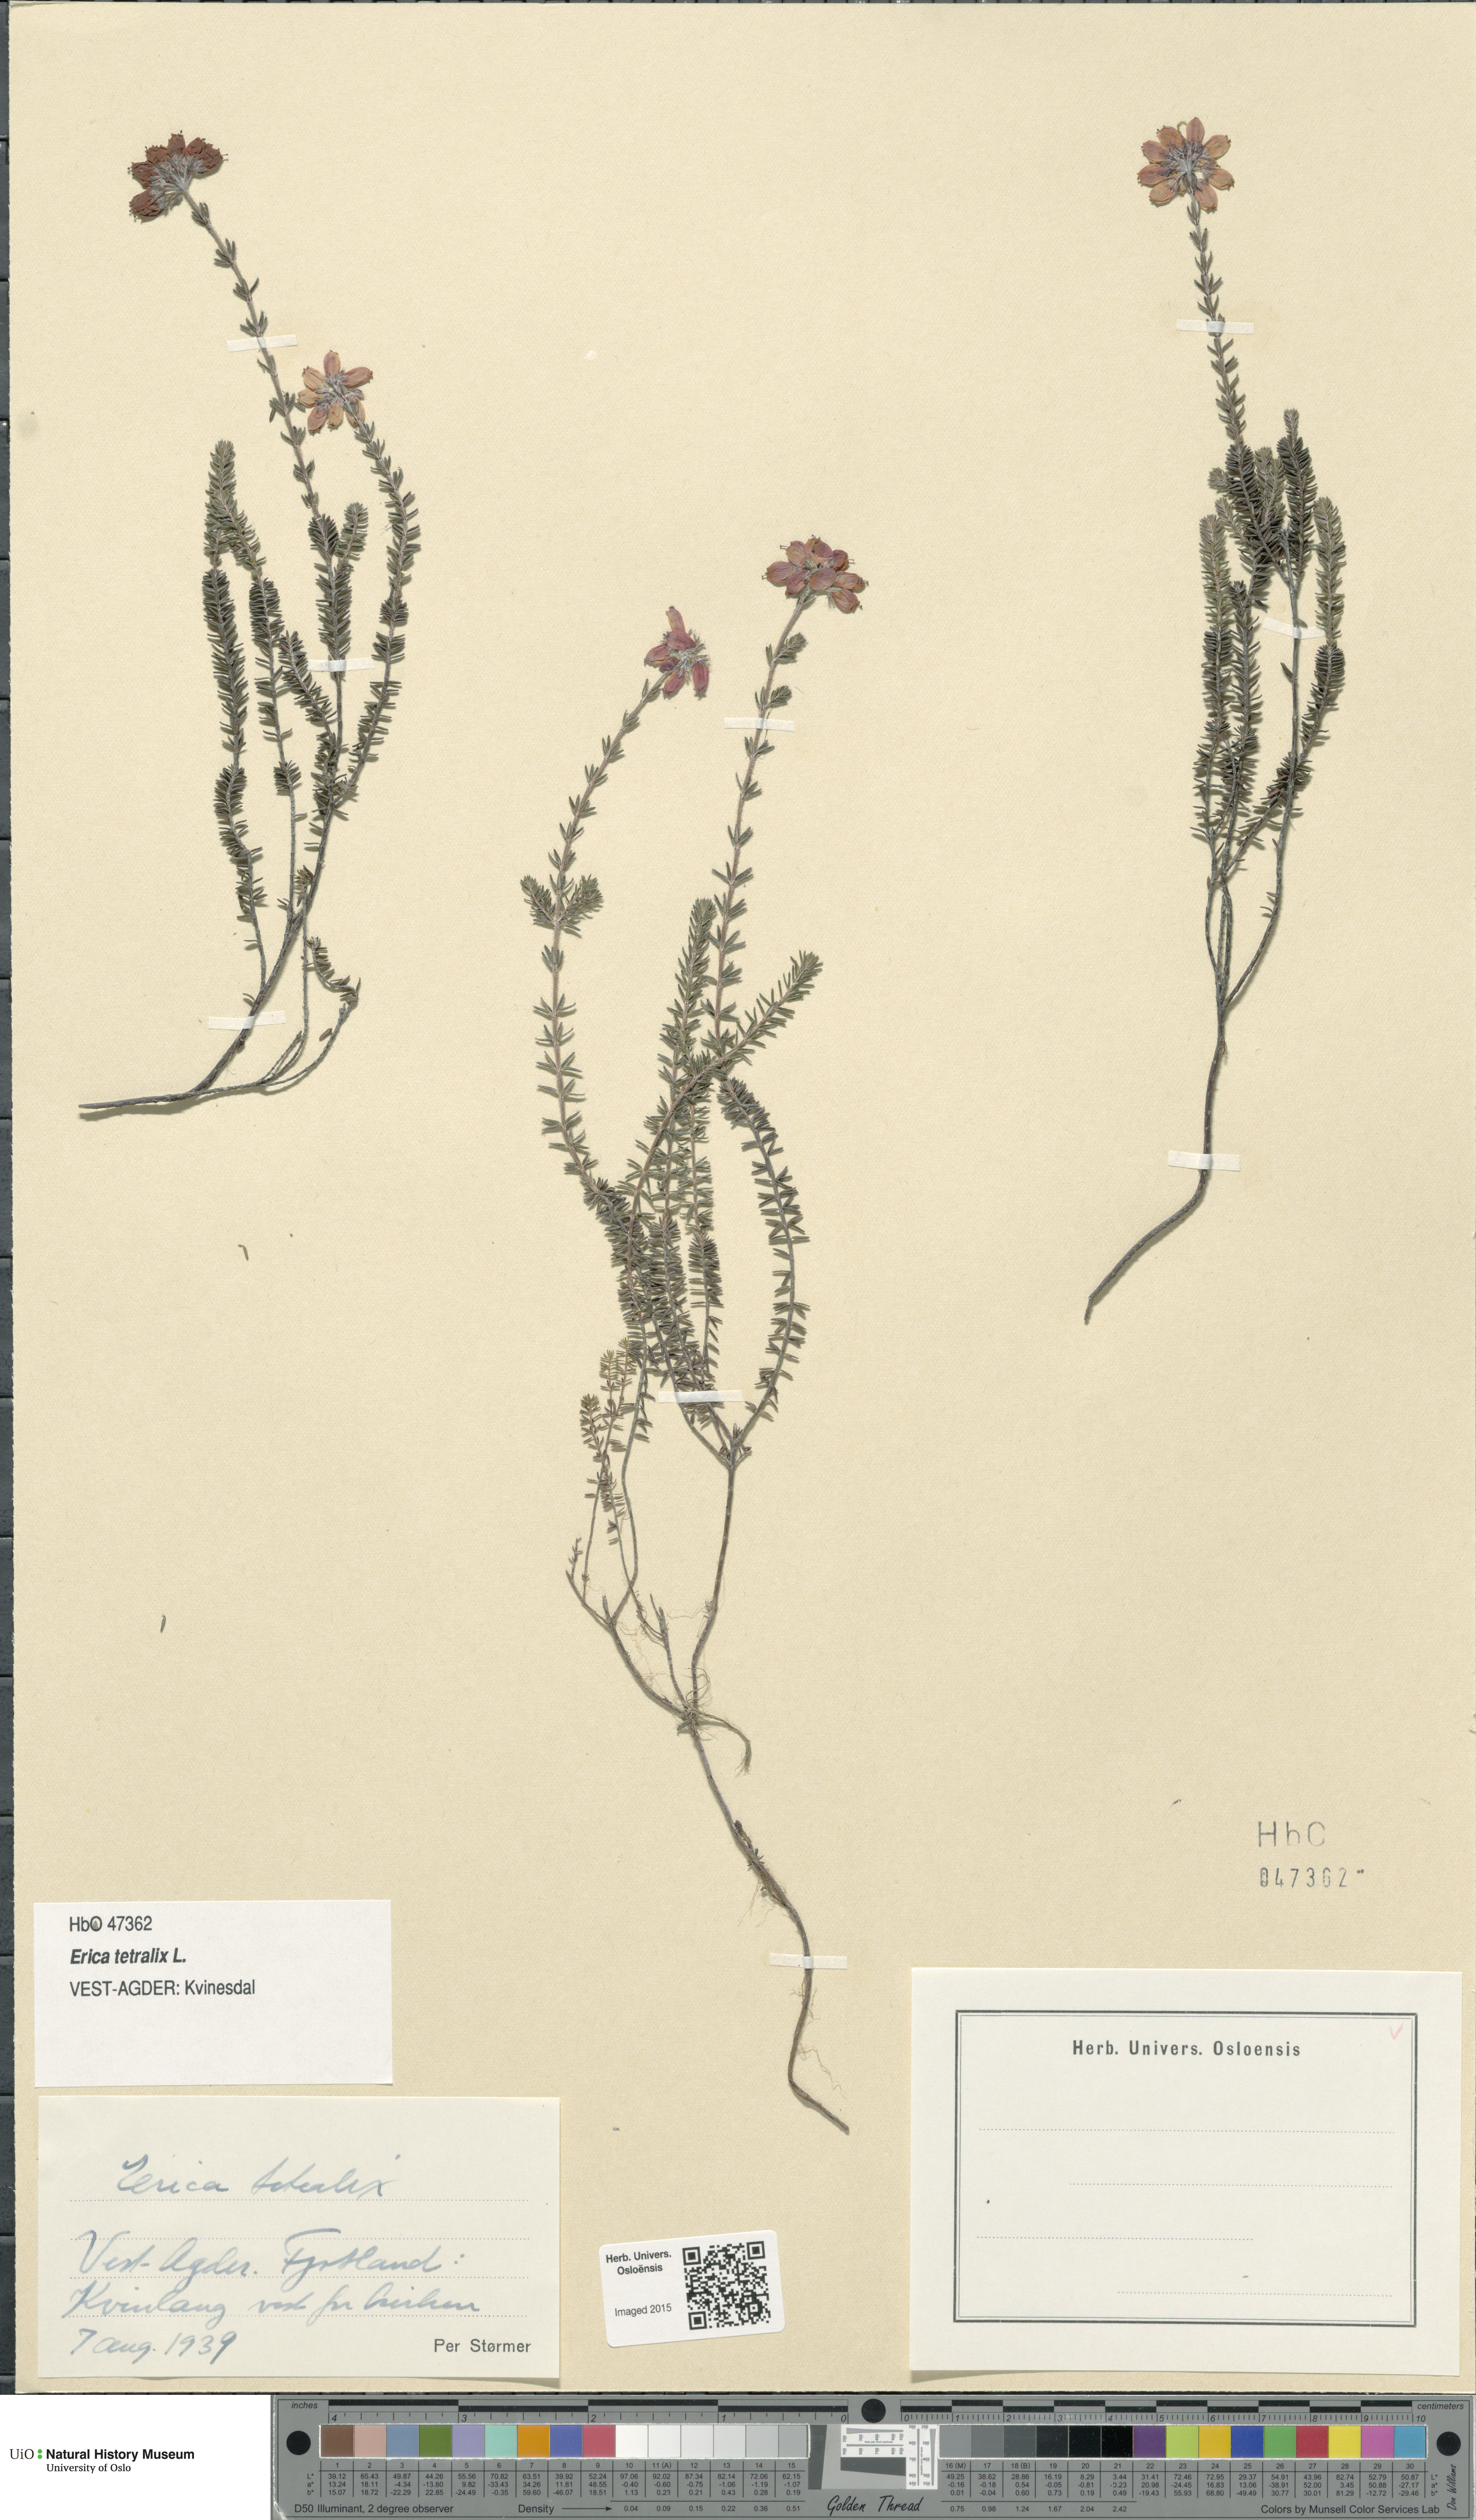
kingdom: Plantae
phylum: Tracheophyta
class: Magnoliopsida
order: Ericales
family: Ericaceae
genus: Erica
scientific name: Erica tetralix
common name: Cross-leaved heath
